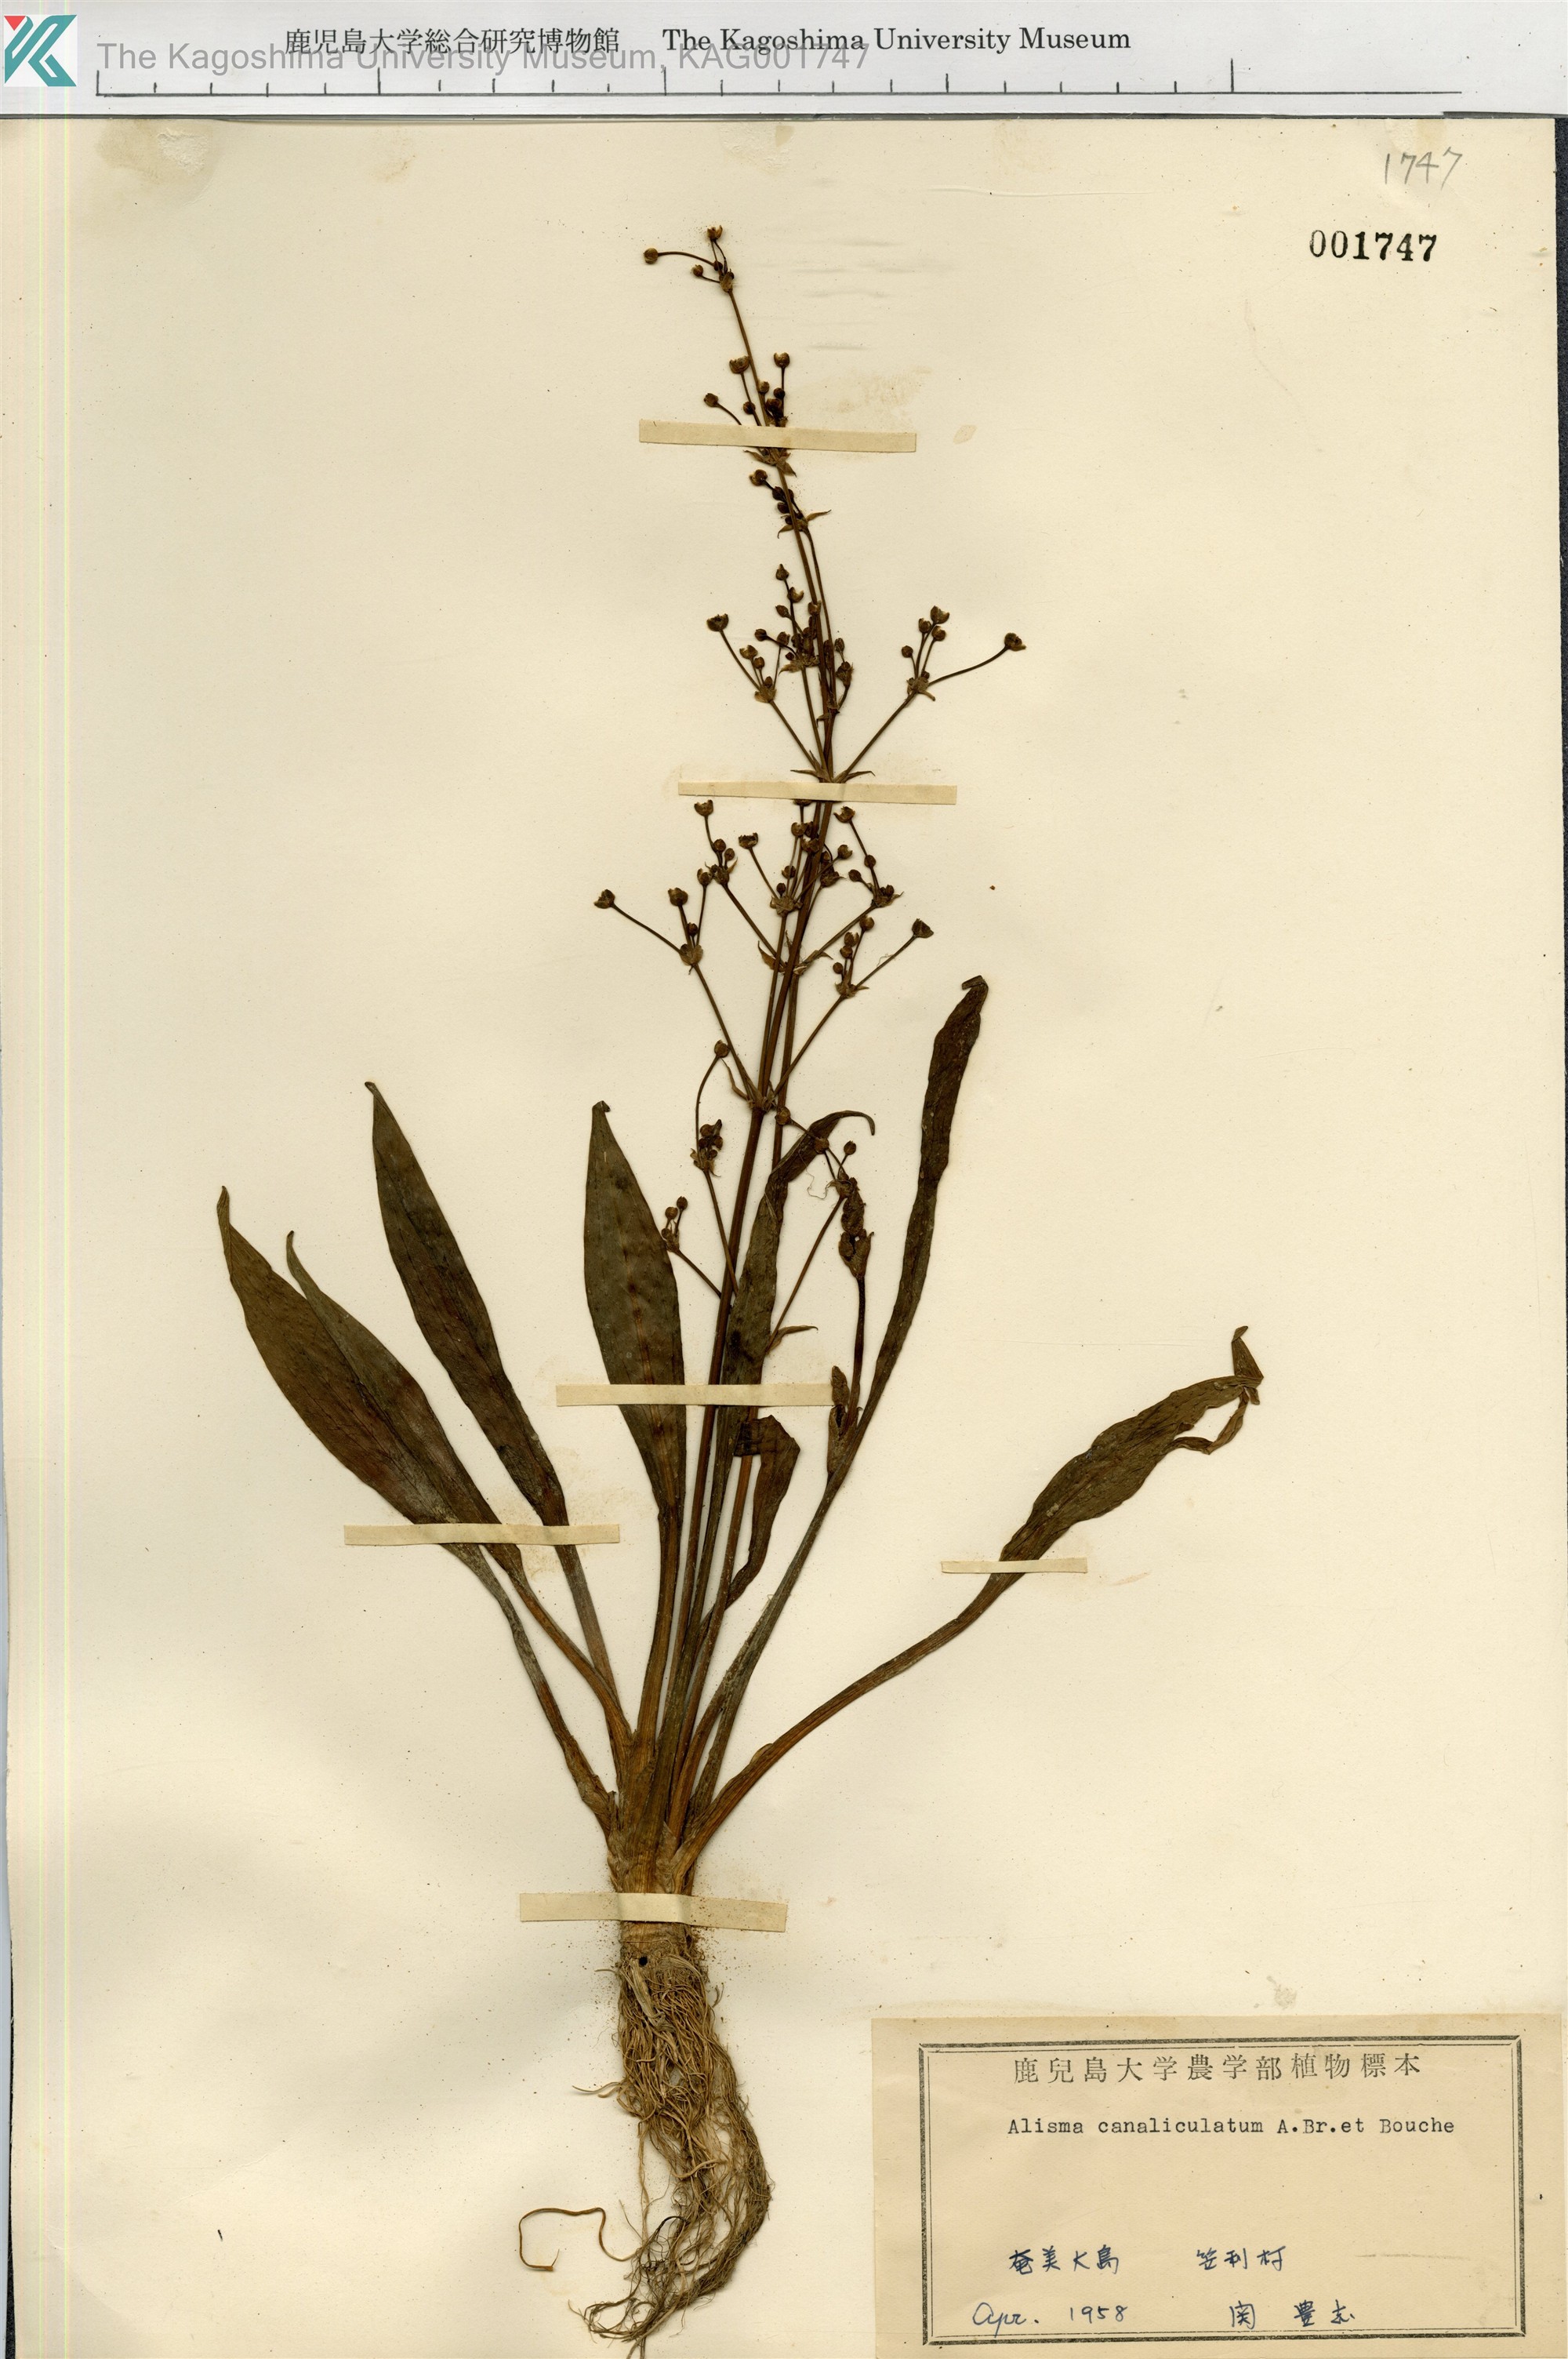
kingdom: Plantae
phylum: Tracheophyta
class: Liliopsida
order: Alismatales
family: Alismataceae
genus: Alisma
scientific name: Alisma canaliculatum
